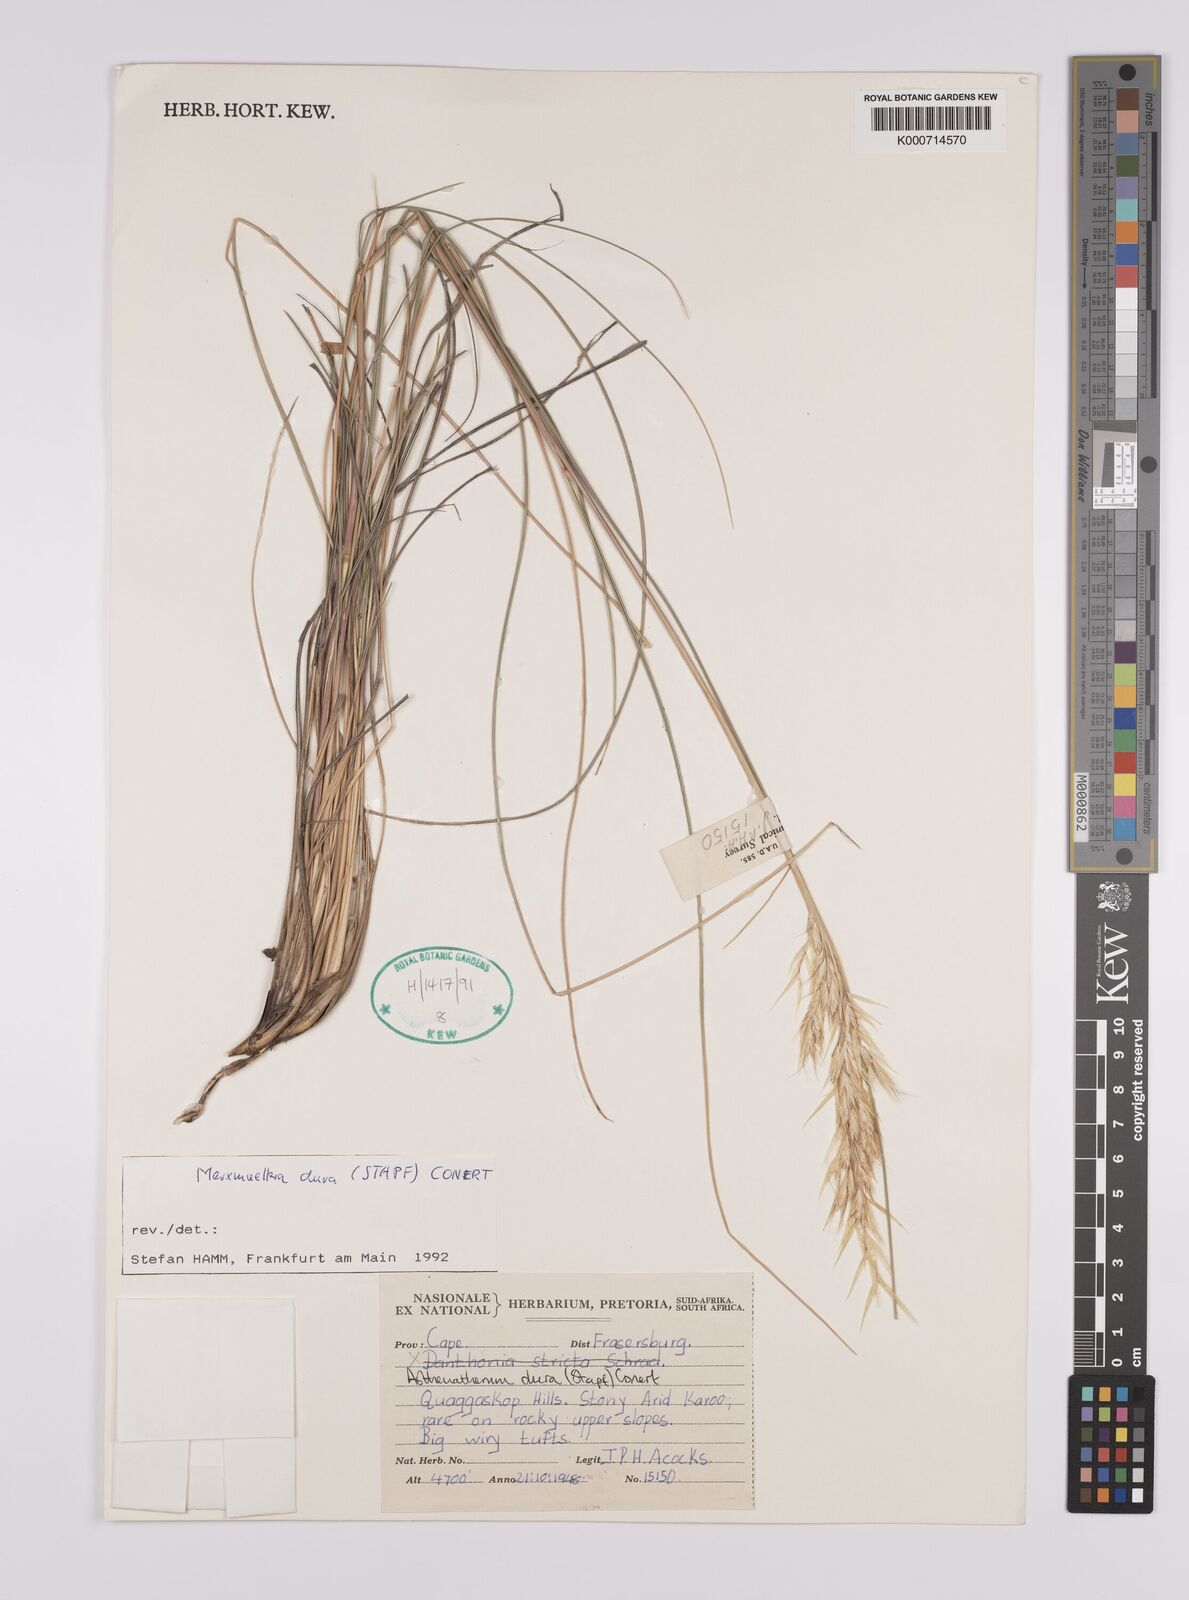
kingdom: Plantae
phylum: Tracheophyta
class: Liliopsida
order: Poales
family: Poaceae
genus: Rytidosperma
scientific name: Rytidosperma
